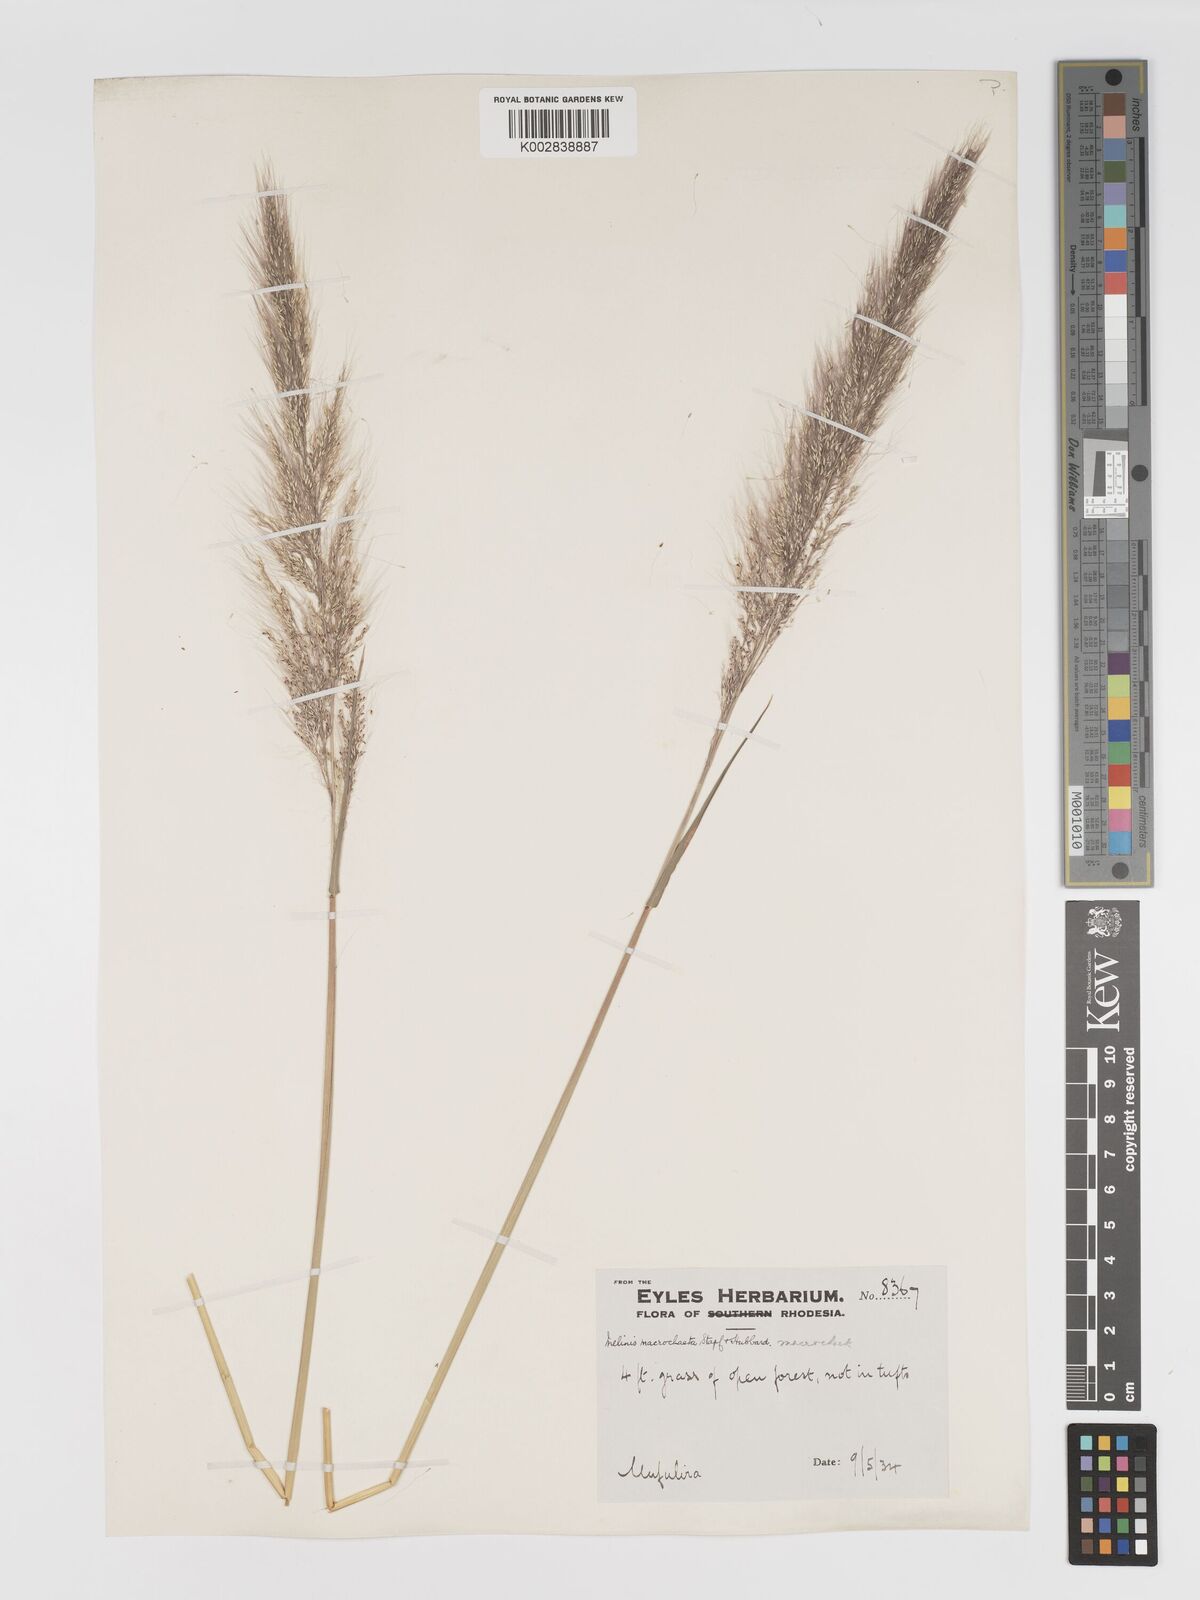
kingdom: Plantae
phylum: Tracheophyta
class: Liliopsida
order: Poales
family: Poaceae
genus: Melinis
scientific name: Melinis macrochaeta
